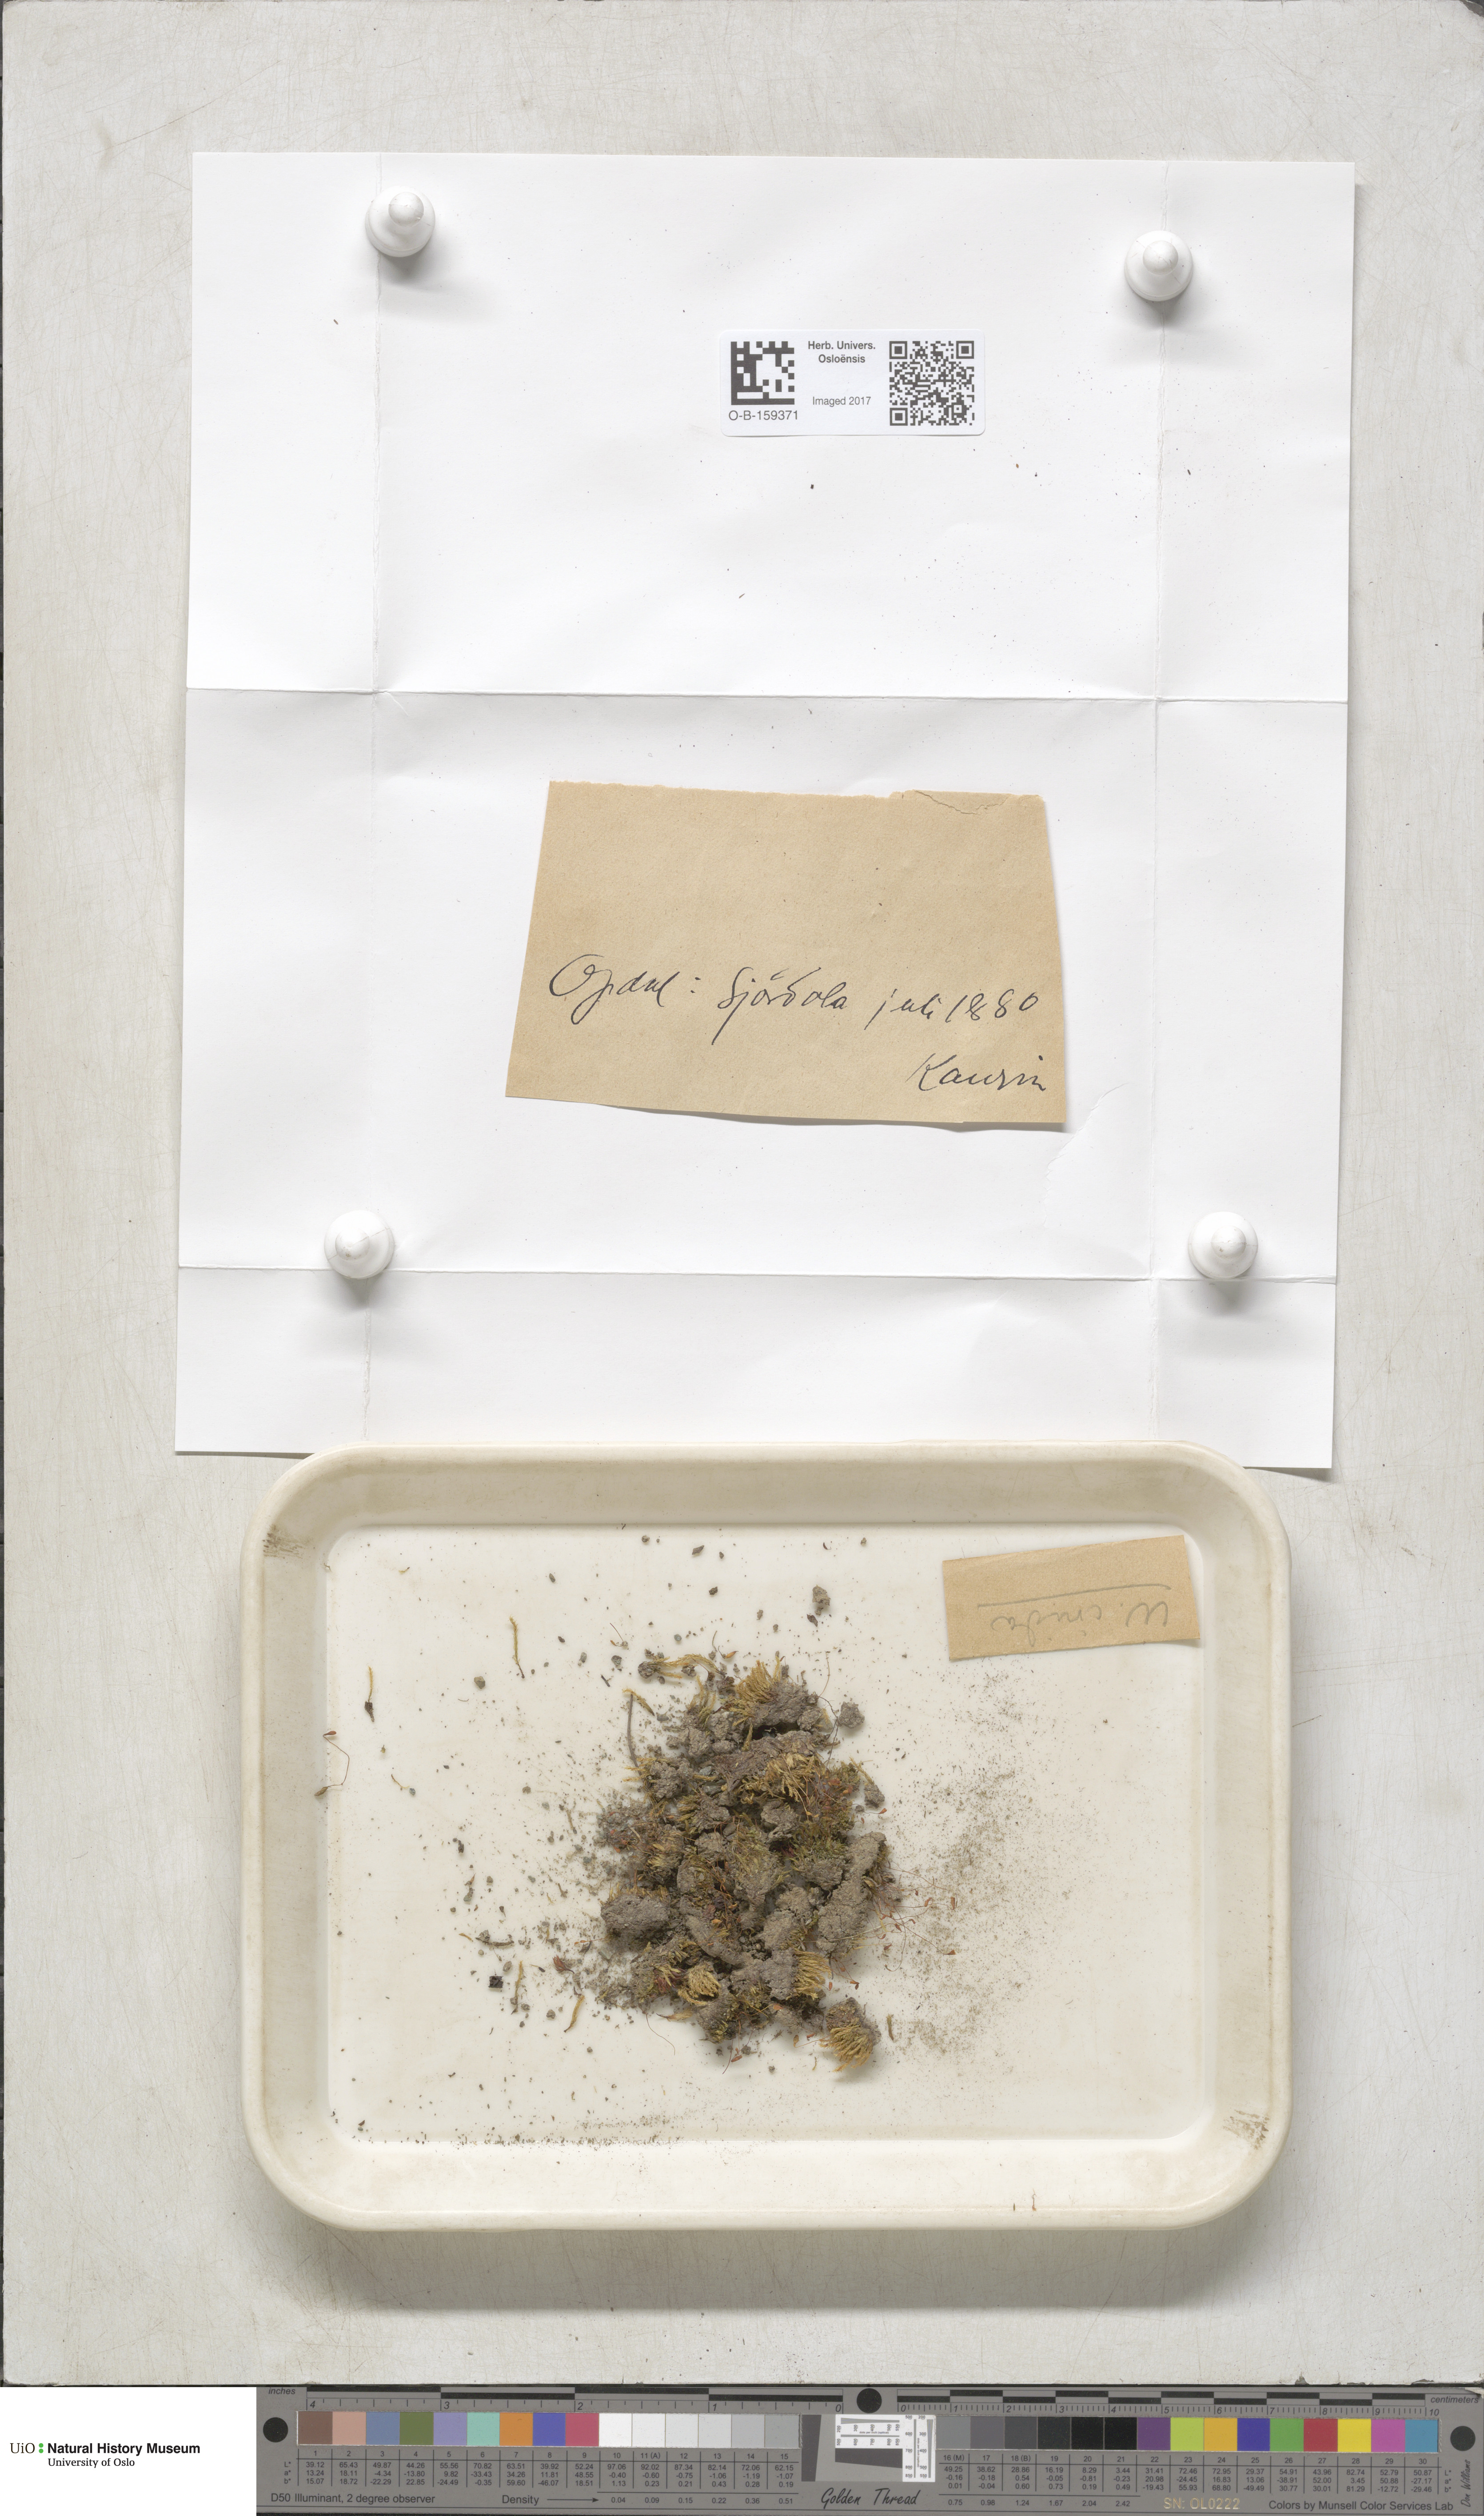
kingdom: Plantae
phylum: Bryophyta
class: Bryopsida
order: Bryales
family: Mniaceae
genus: Pohlia
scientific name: Pohlia cruda
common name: Opal nodding moss
